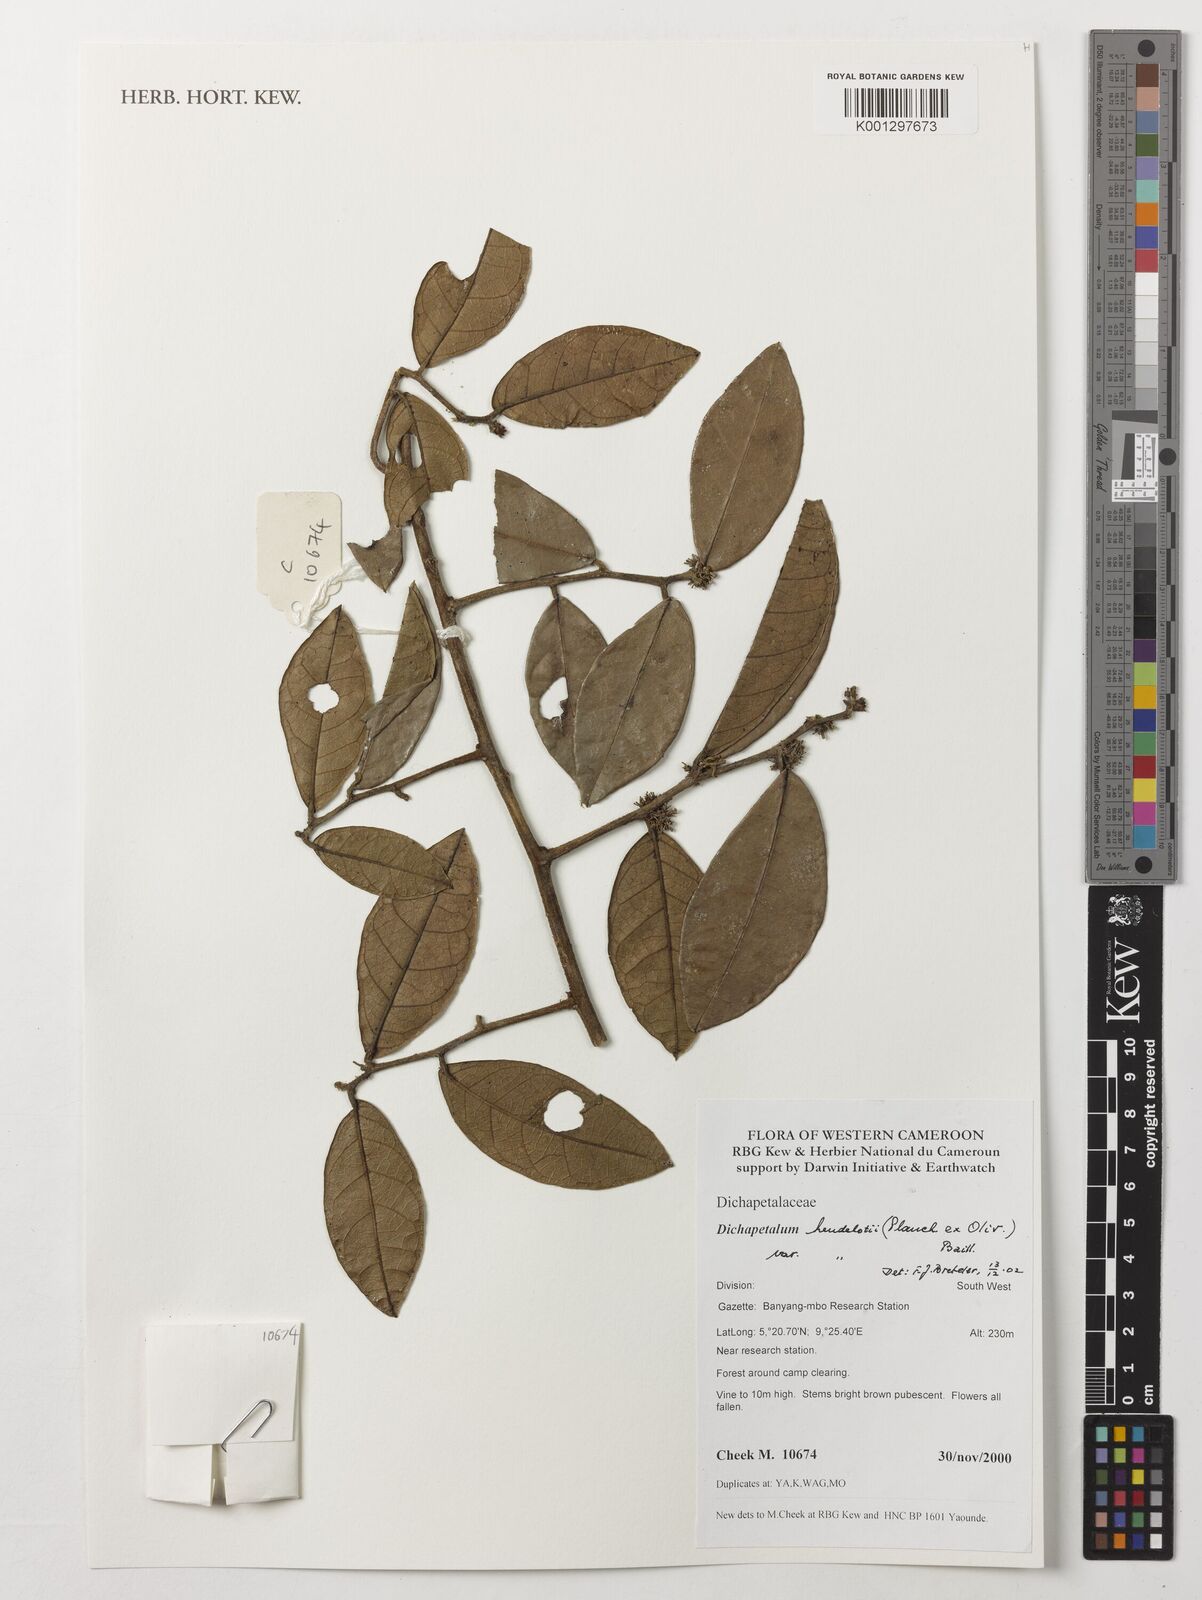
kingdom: Plantae
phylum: Tracheophyta
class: Magnoliopsida
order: Malpighiales
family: Dichapetalaceae
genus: Dichapetalum
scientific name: Dichapetalum heudelotii
